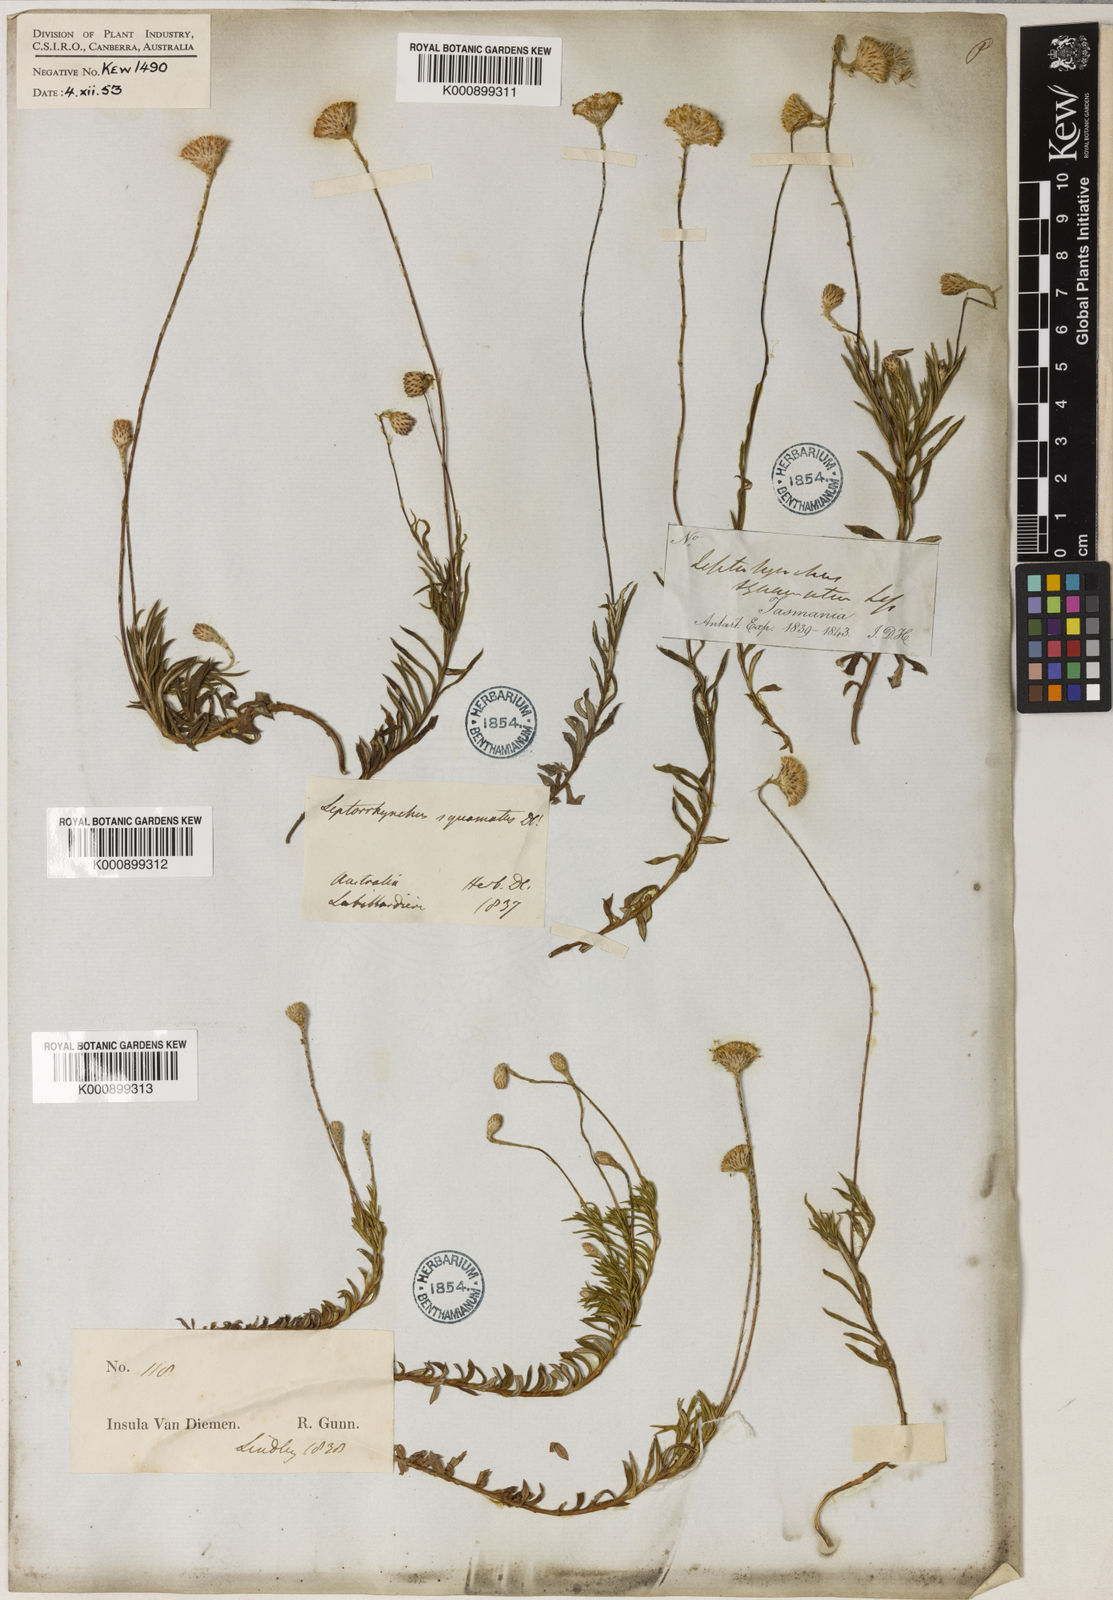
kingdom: Plantae
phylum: Tracheophyta
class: Magnoliopsida
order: Asterales
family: Asteraceae
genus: Leptorhynchos
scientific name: Leptorhynchos squamatus
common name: Scaly-buttons
